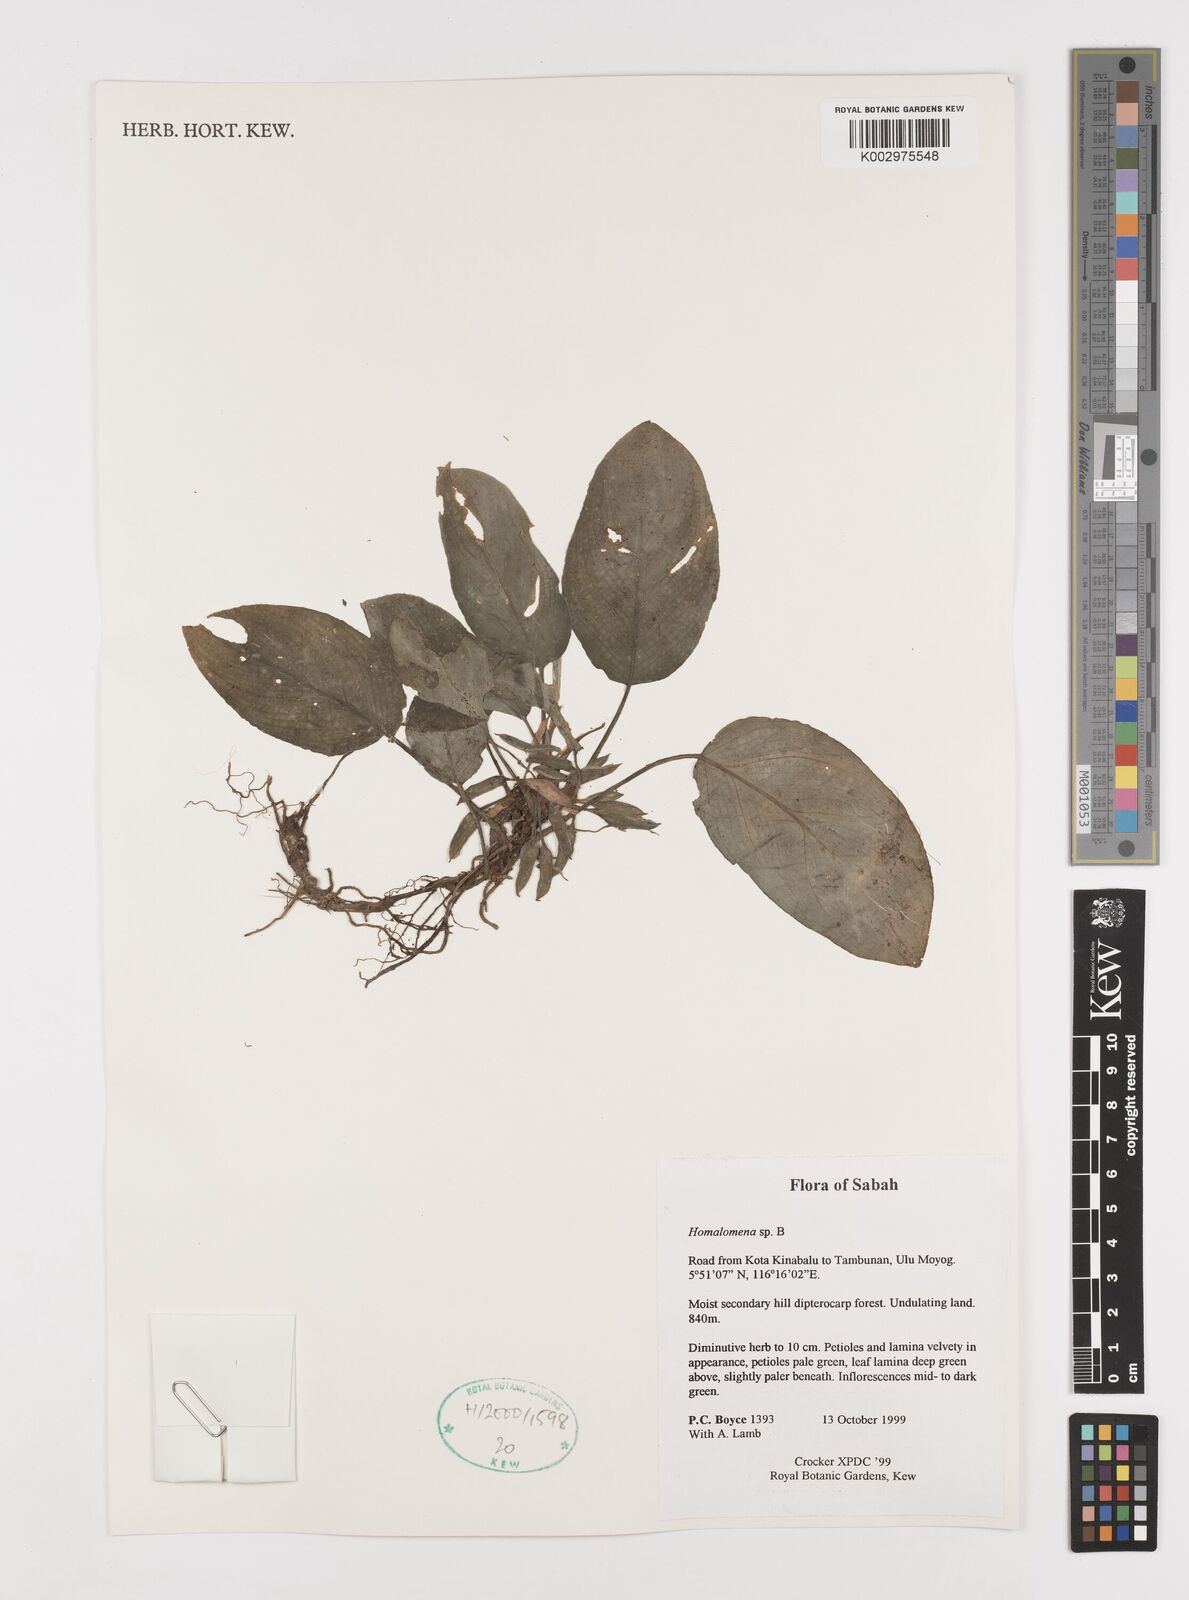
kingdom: Plantae
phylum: Tracheophyta
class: Liliopsida
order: Alismatales
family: Araceae
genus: Homalomena
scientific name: Homalomena
